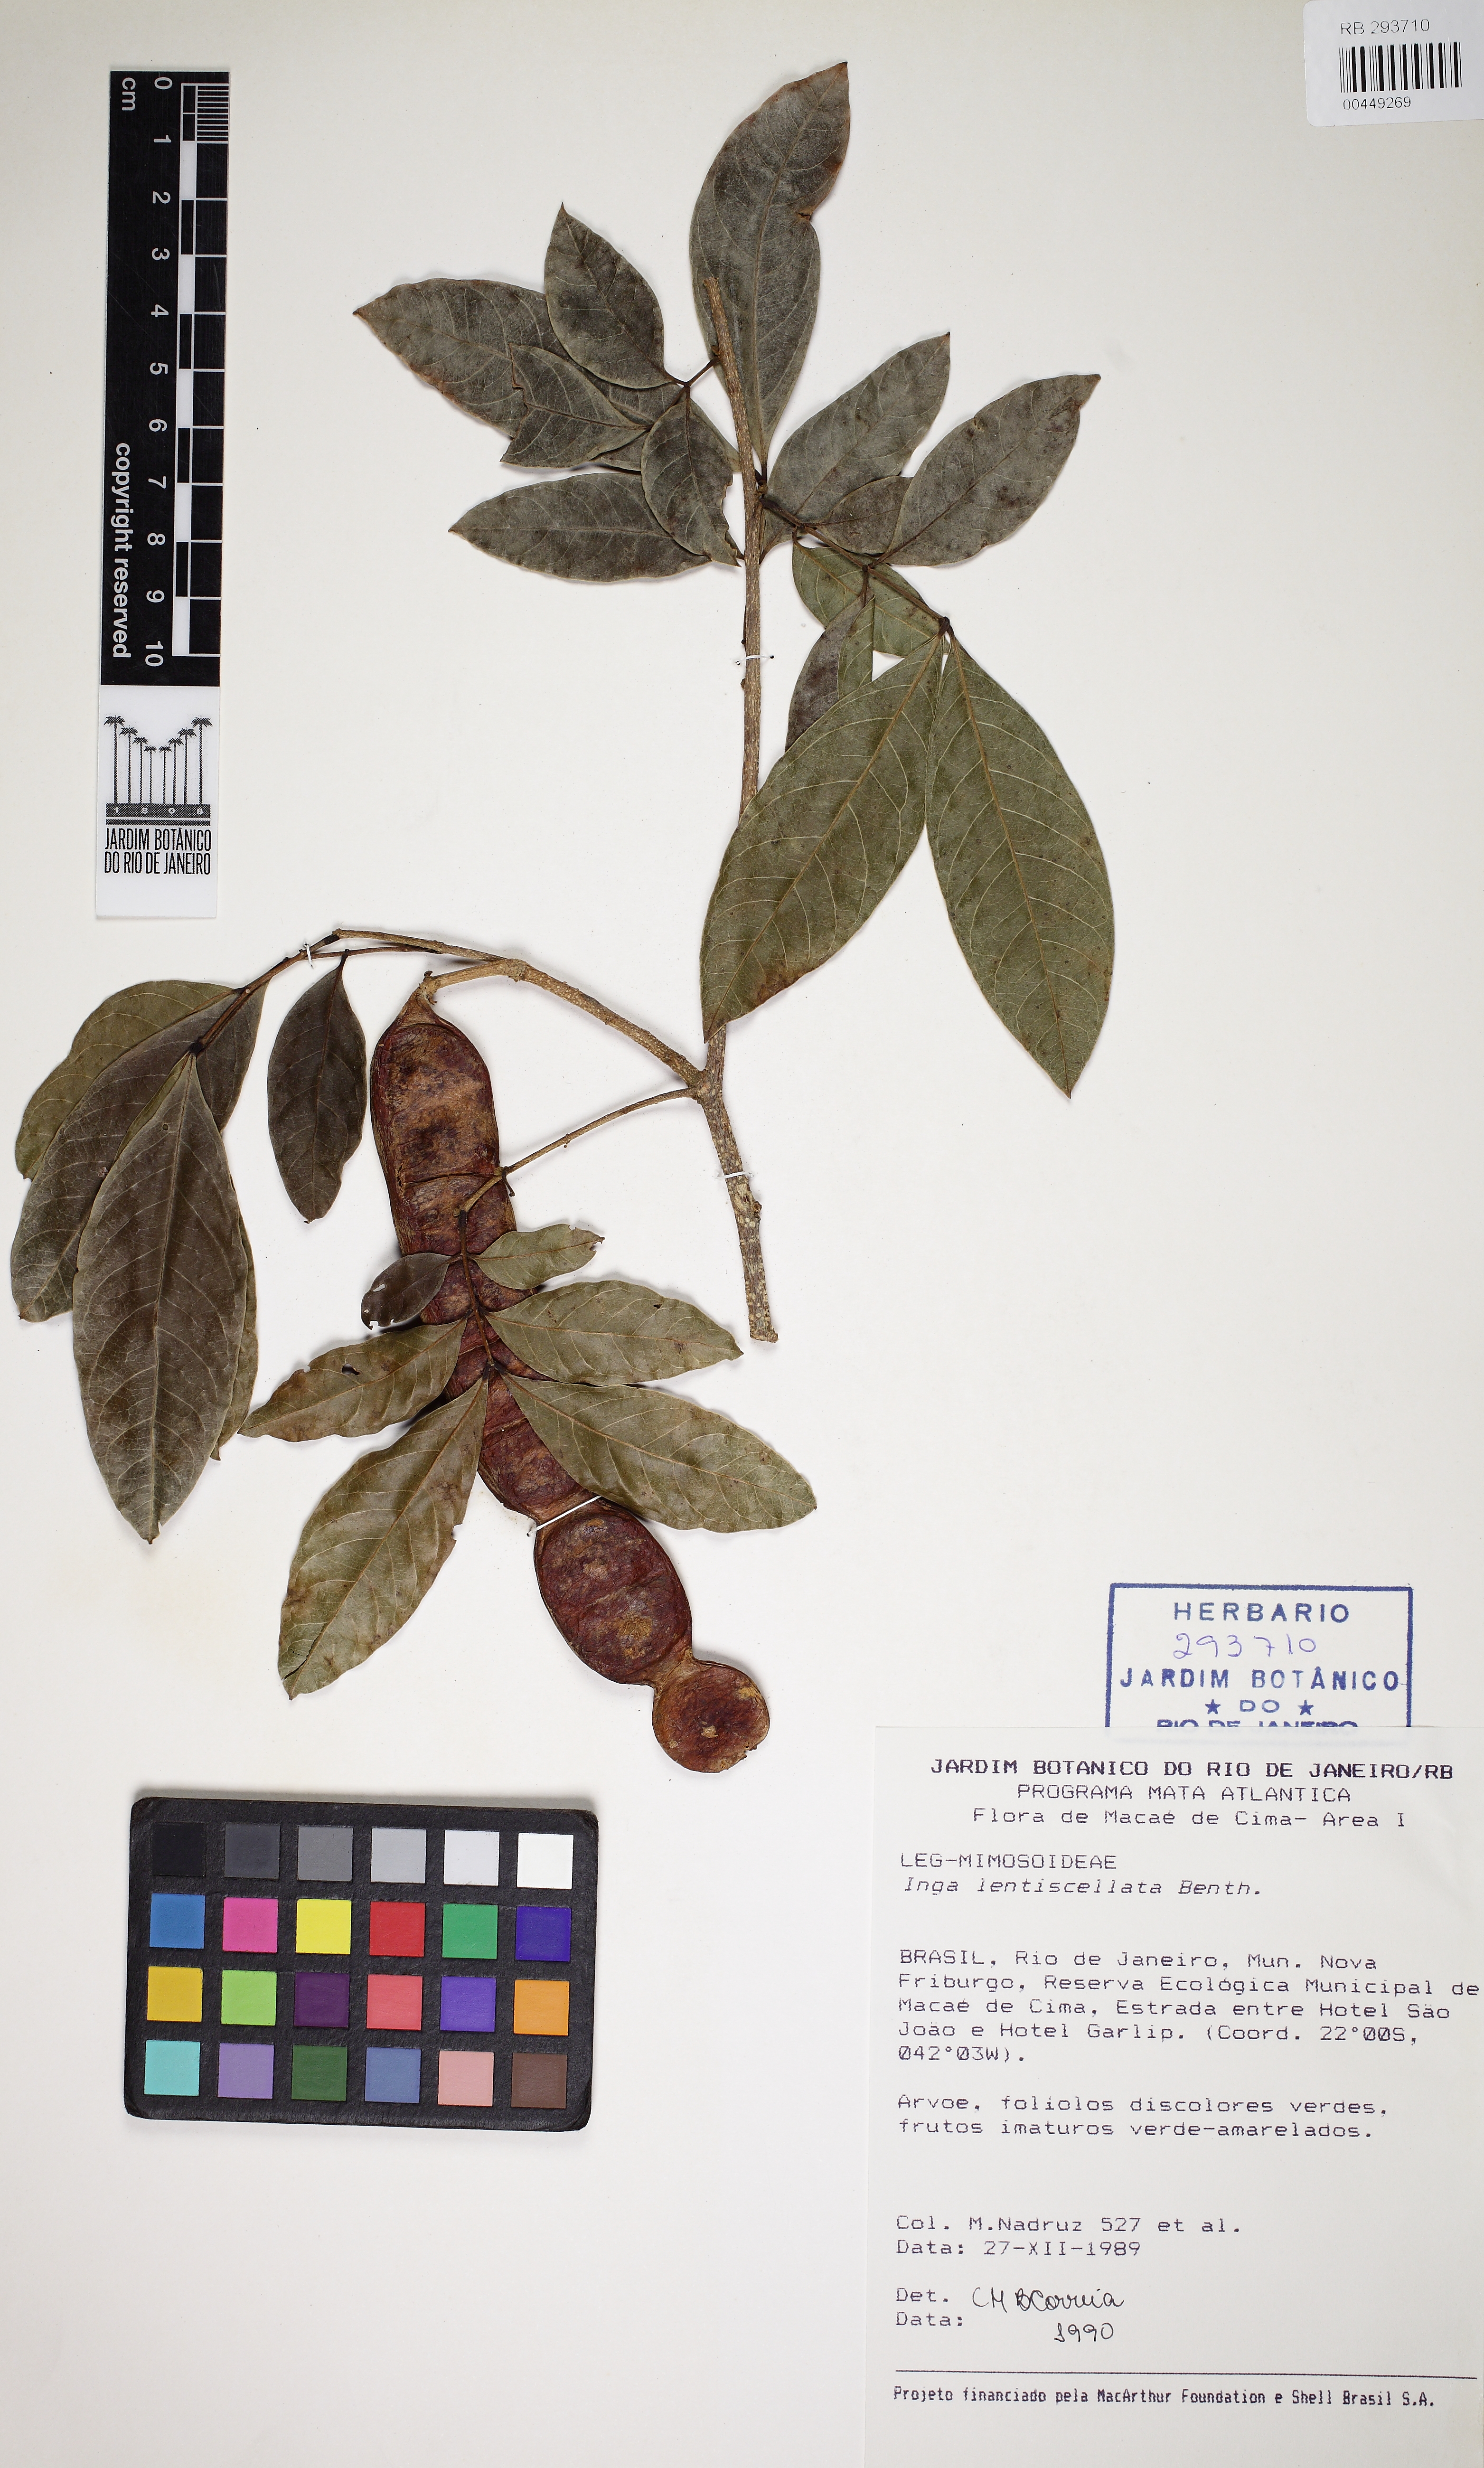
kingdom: Plantae
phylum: Tracheophyta
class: Magnoliopsida
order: Fabales
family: Fabaceae
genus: Inga
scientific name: Inga lenticellata
